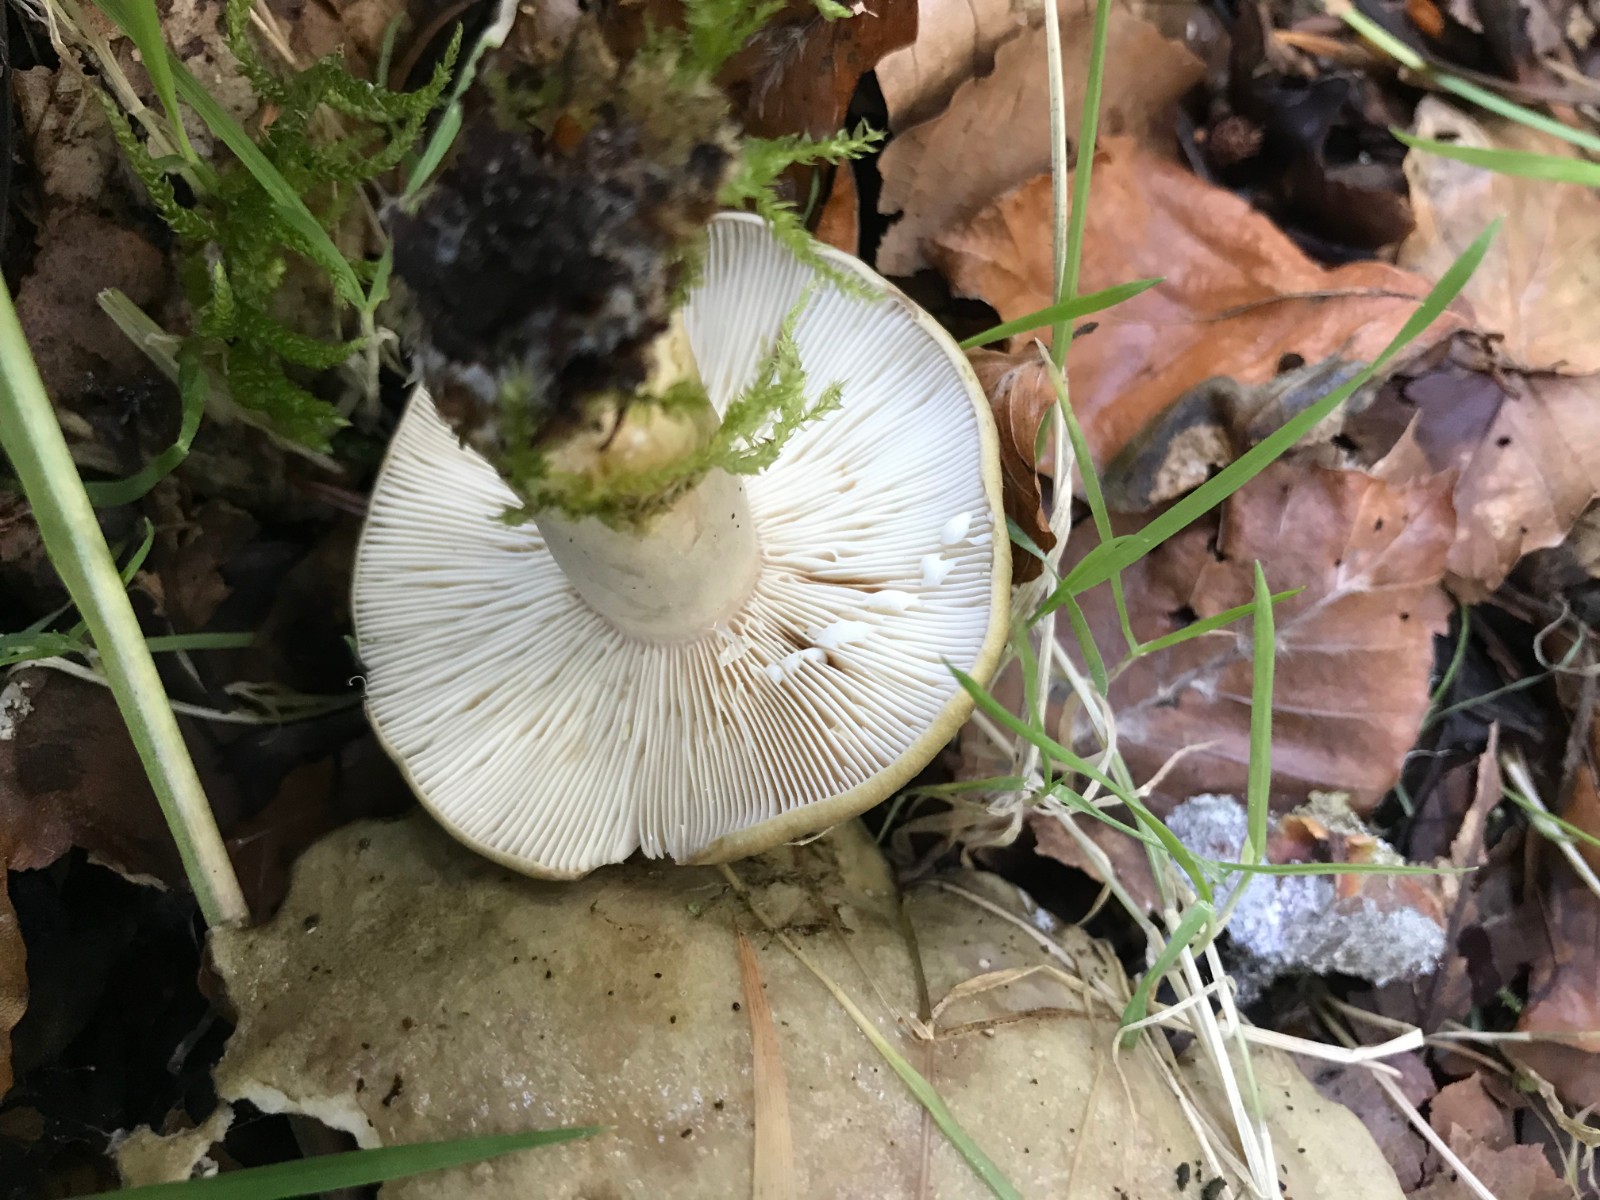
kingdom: Fungi
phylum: Basidiomycota
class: Agaricomycetes
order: Russulales
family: Russulaceae
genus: Lactarius
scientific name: Lactarius blennius
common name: dråbeplettet mælkehat
